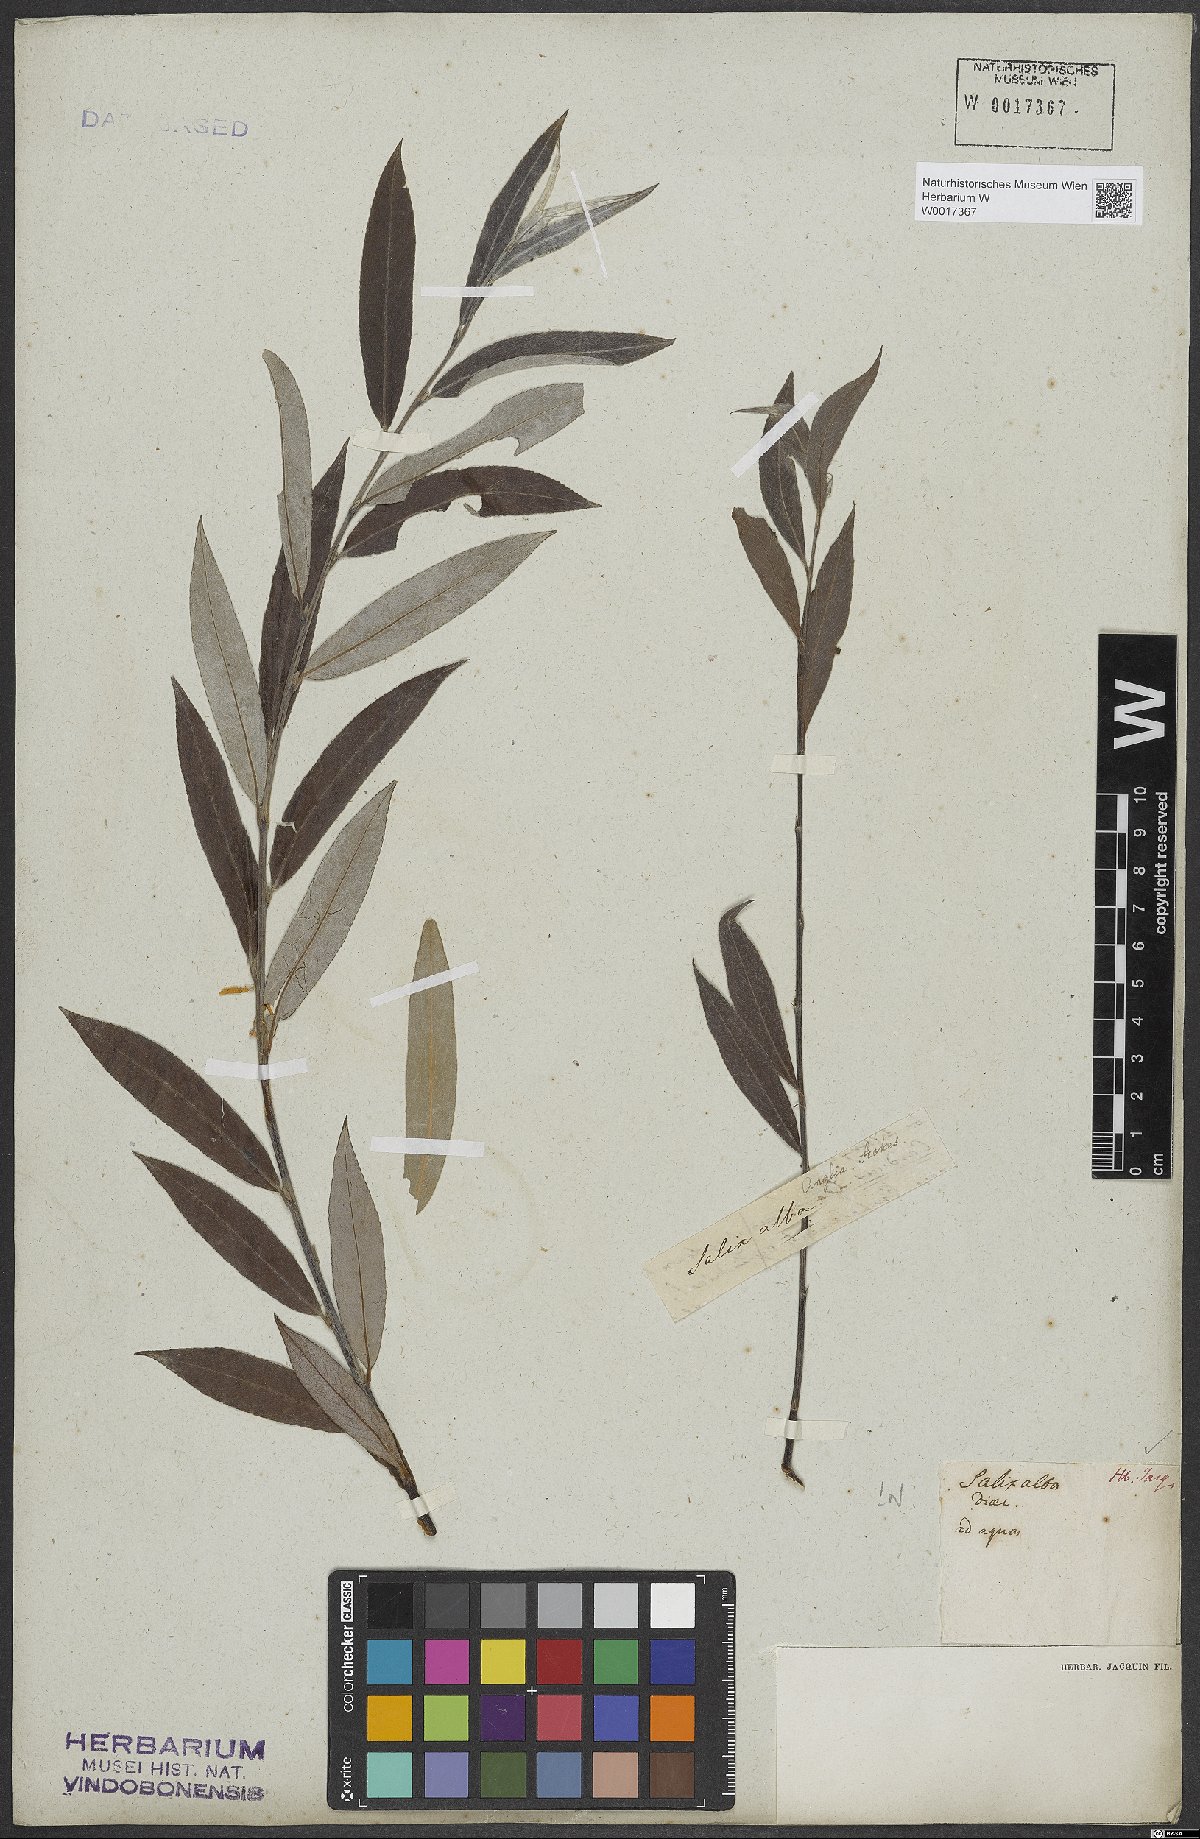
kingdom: Plantae
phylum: Tracheophyta
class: Magnoliopsida
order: Malpighiales
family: Salicaceae
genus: Salix
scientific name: Salix alba
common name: White willow
